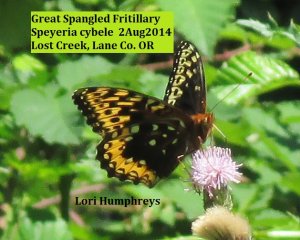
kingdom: Animalia
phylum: Arthropoda
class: Insecta
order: Lepidoptera
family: Nymphalidae
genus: Speyeria
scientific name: Speyeria cybele
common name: Great Spangled Fritillary
